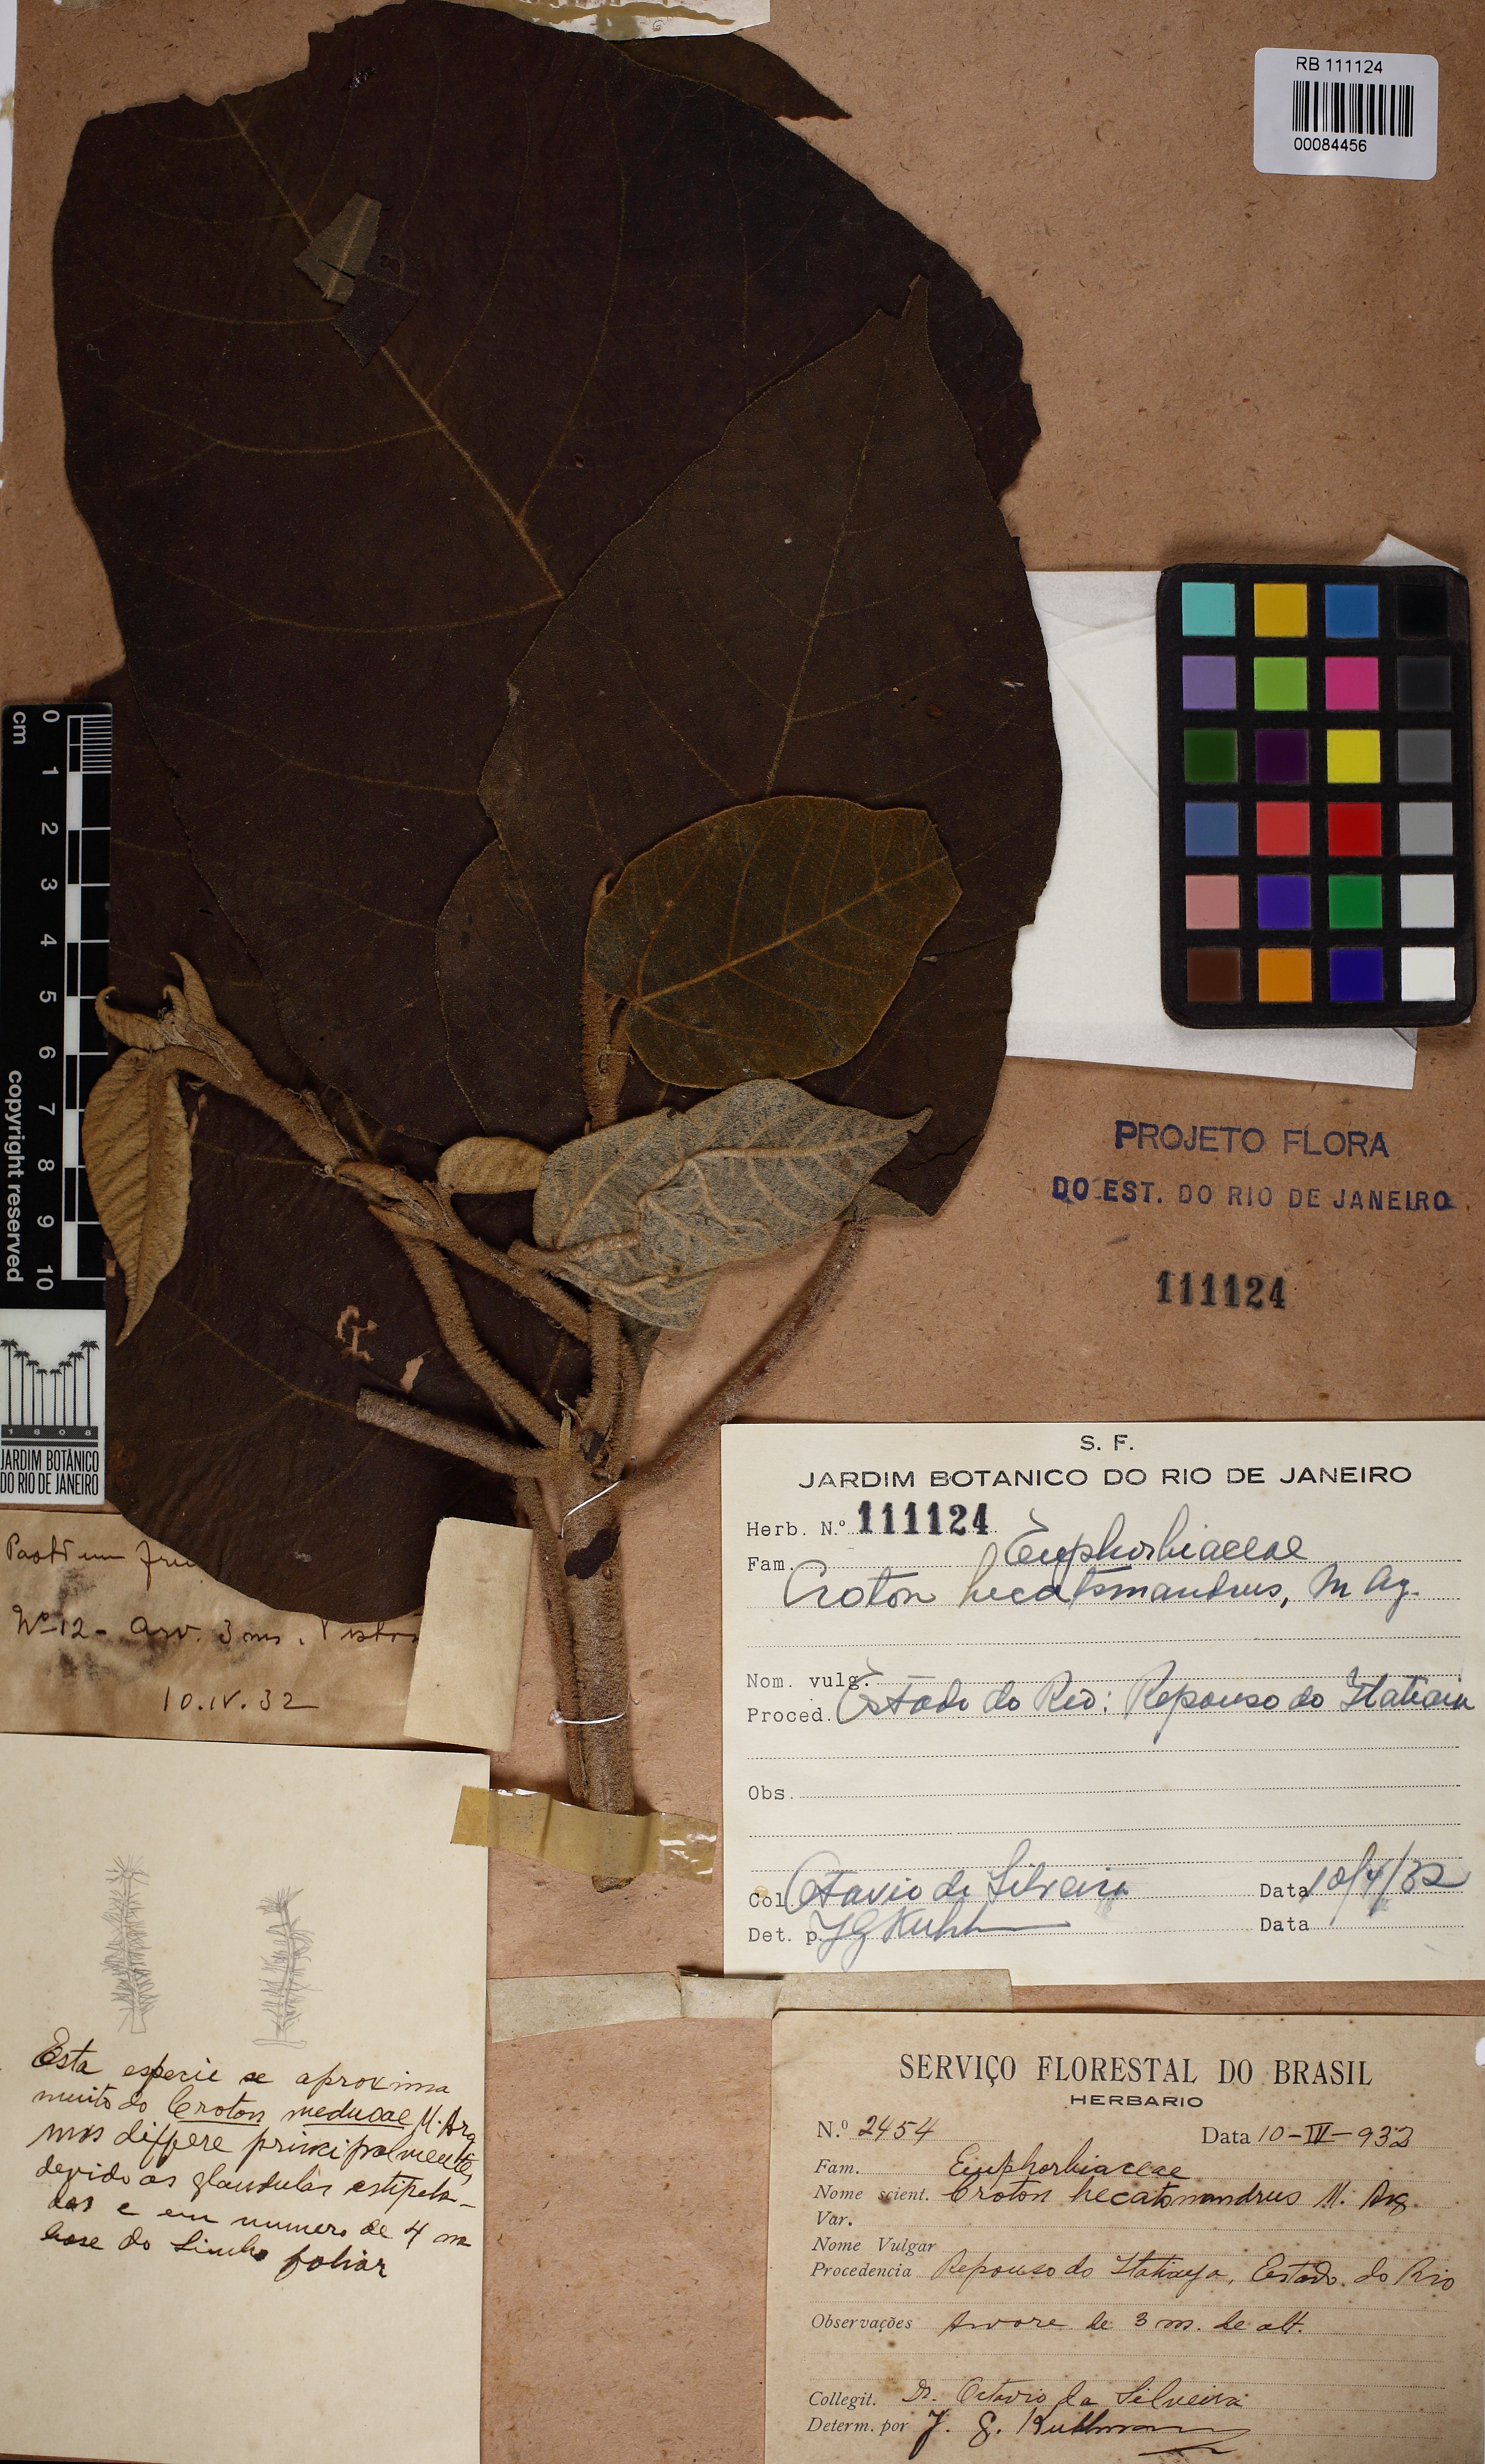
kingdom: Plantae
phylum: Tracheophyta
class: Magnoliopsida
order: Malpighiales
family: Euphorbiaceae
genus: Croton
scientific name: Croton vulnerarius
